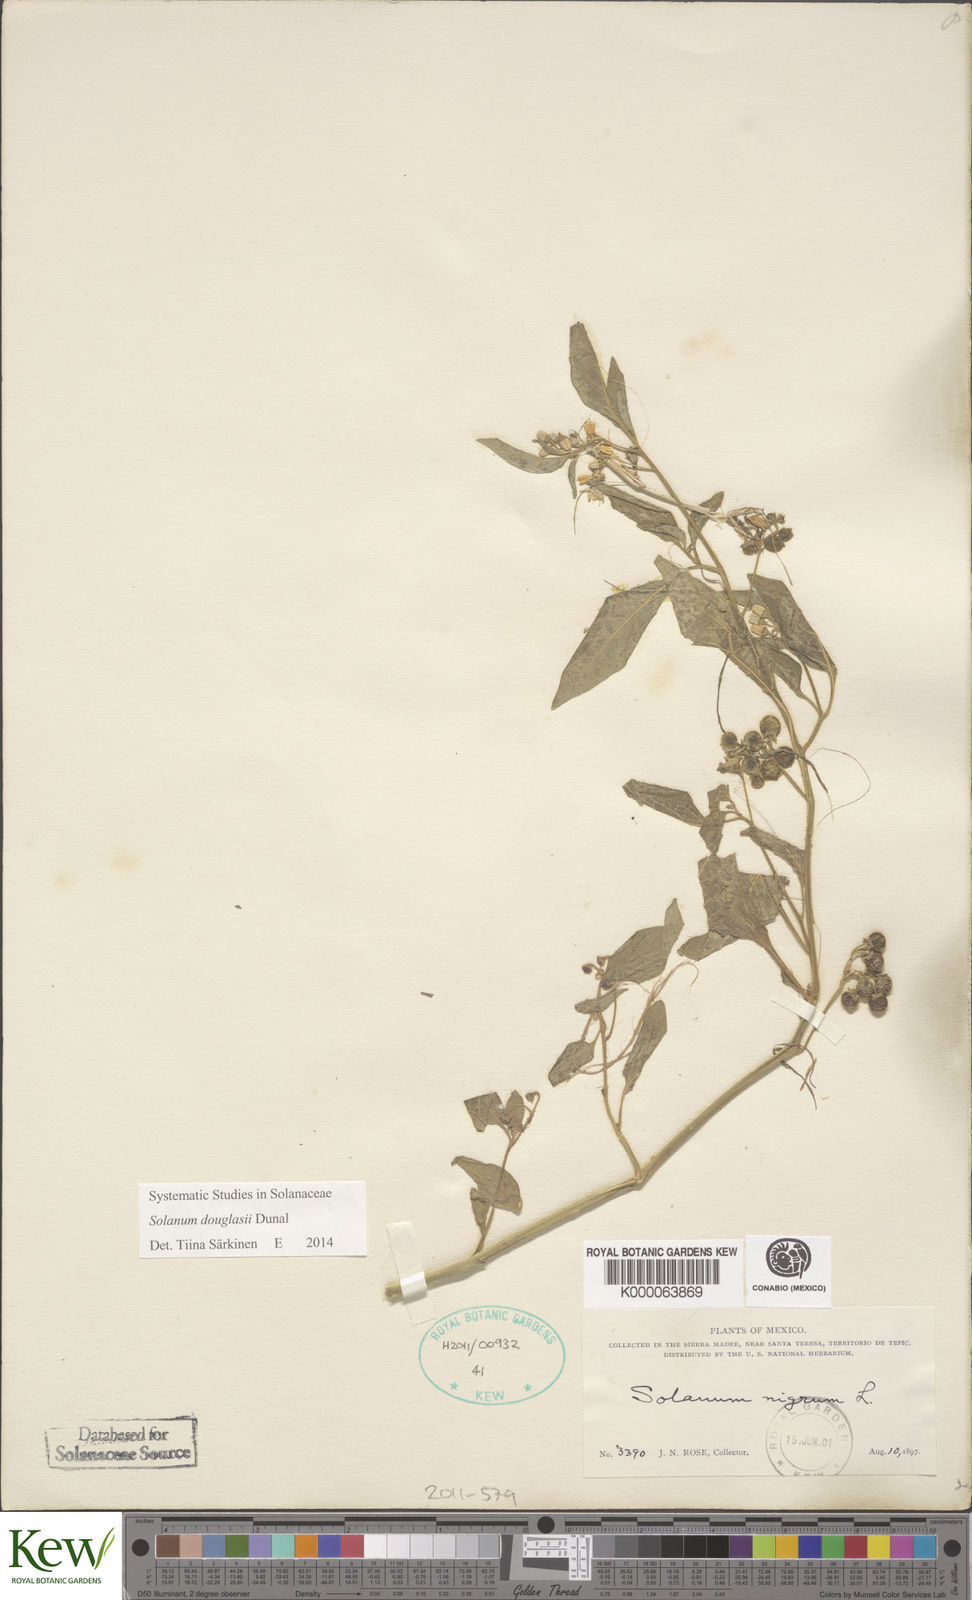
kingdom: Plantae
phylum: Tracheophyta
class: Magnoliopsida
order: Solanales
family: Solanaceae
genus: Solanum
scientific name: Solanum nigrum
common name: Black nightshade
